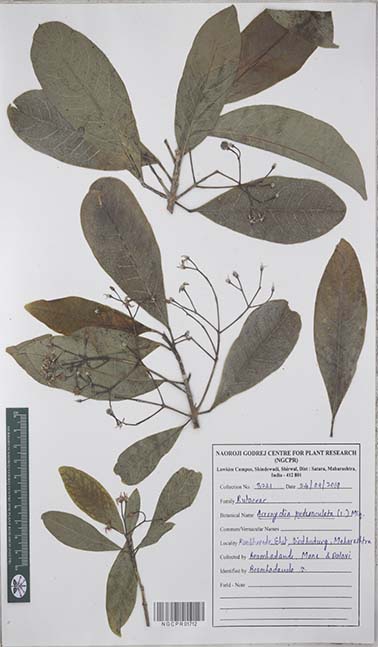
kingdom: Plantae
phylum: Tracheophyta
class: Magnoliopsida
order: Sapindales
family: Rutaceae
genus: Acronychia
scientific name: Acronychia pedunculata
